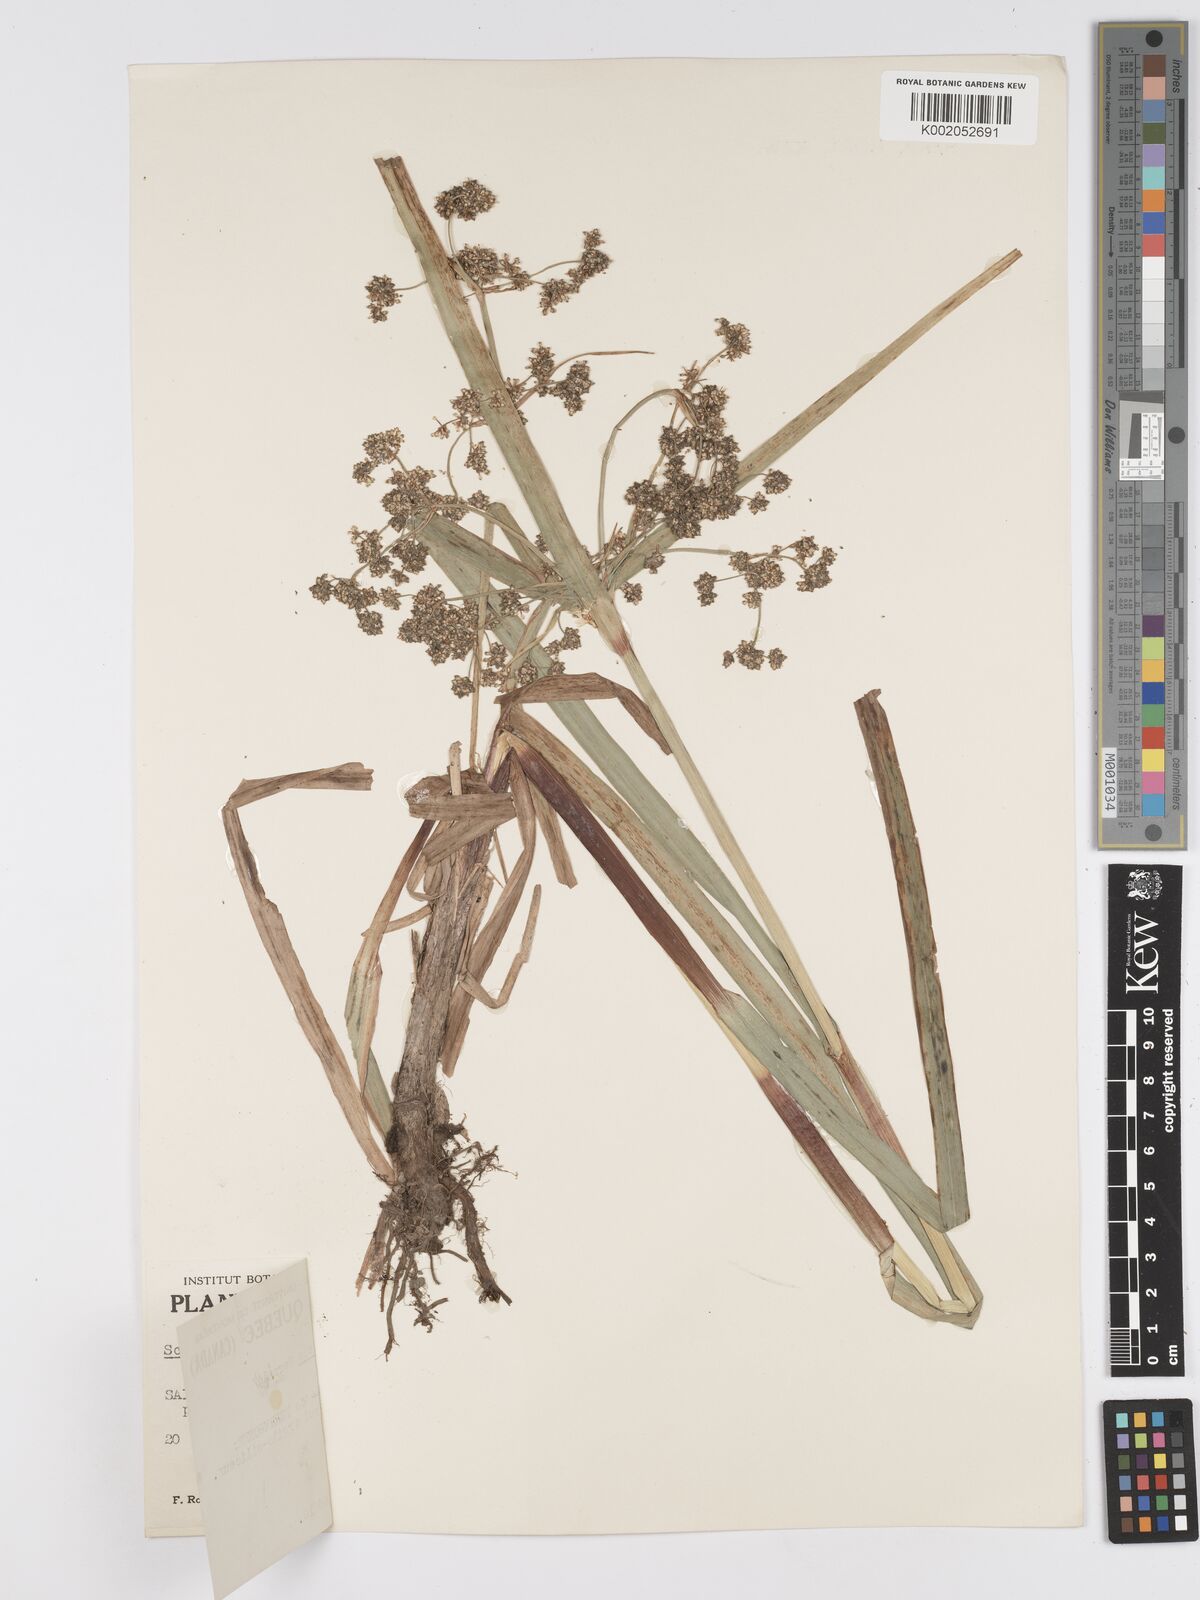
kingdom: Plantae
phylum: Tracheophyta
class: Liliopsida
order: Poales
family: Cyperaceae
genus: Scirpus
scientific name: Scirpus microcarpus
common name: Panicled bulrush
